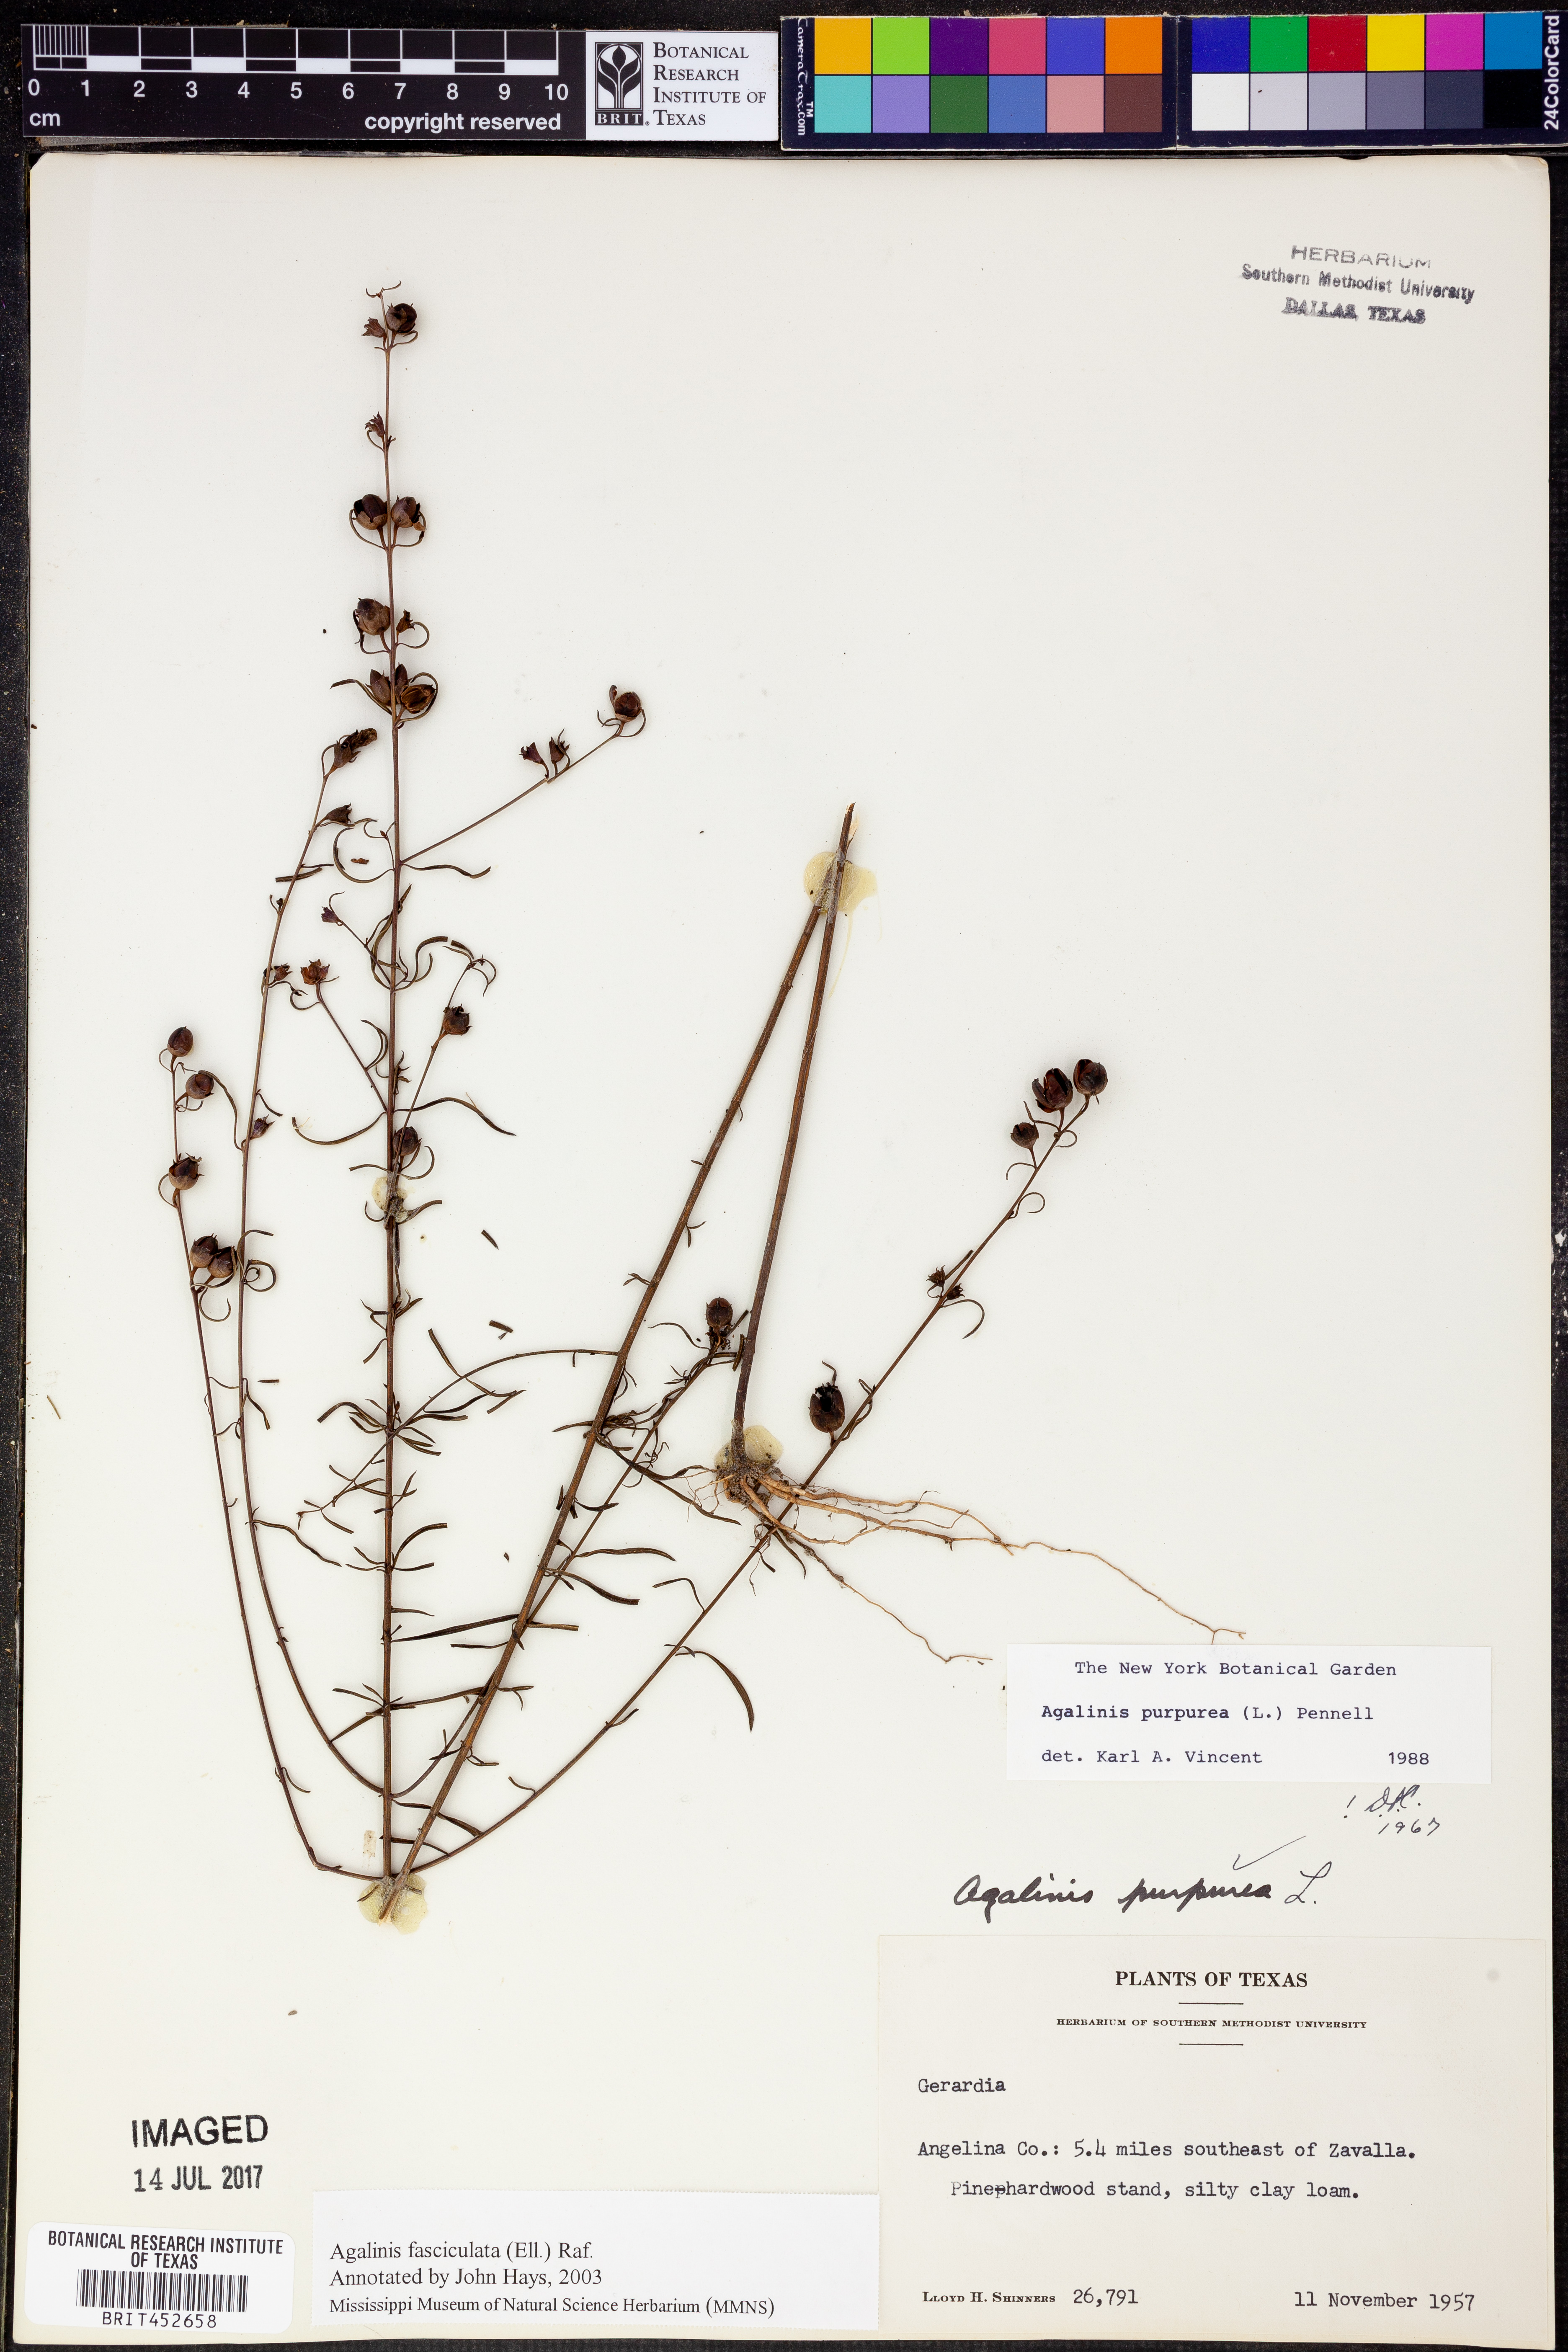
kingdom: Plantae
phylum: Tracheophyta
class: Magnoliopsida
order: Lamiales
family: Orobanchaceae
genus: Agalinis
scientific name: Agalinis fasciculata
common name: Beach false foxglove
